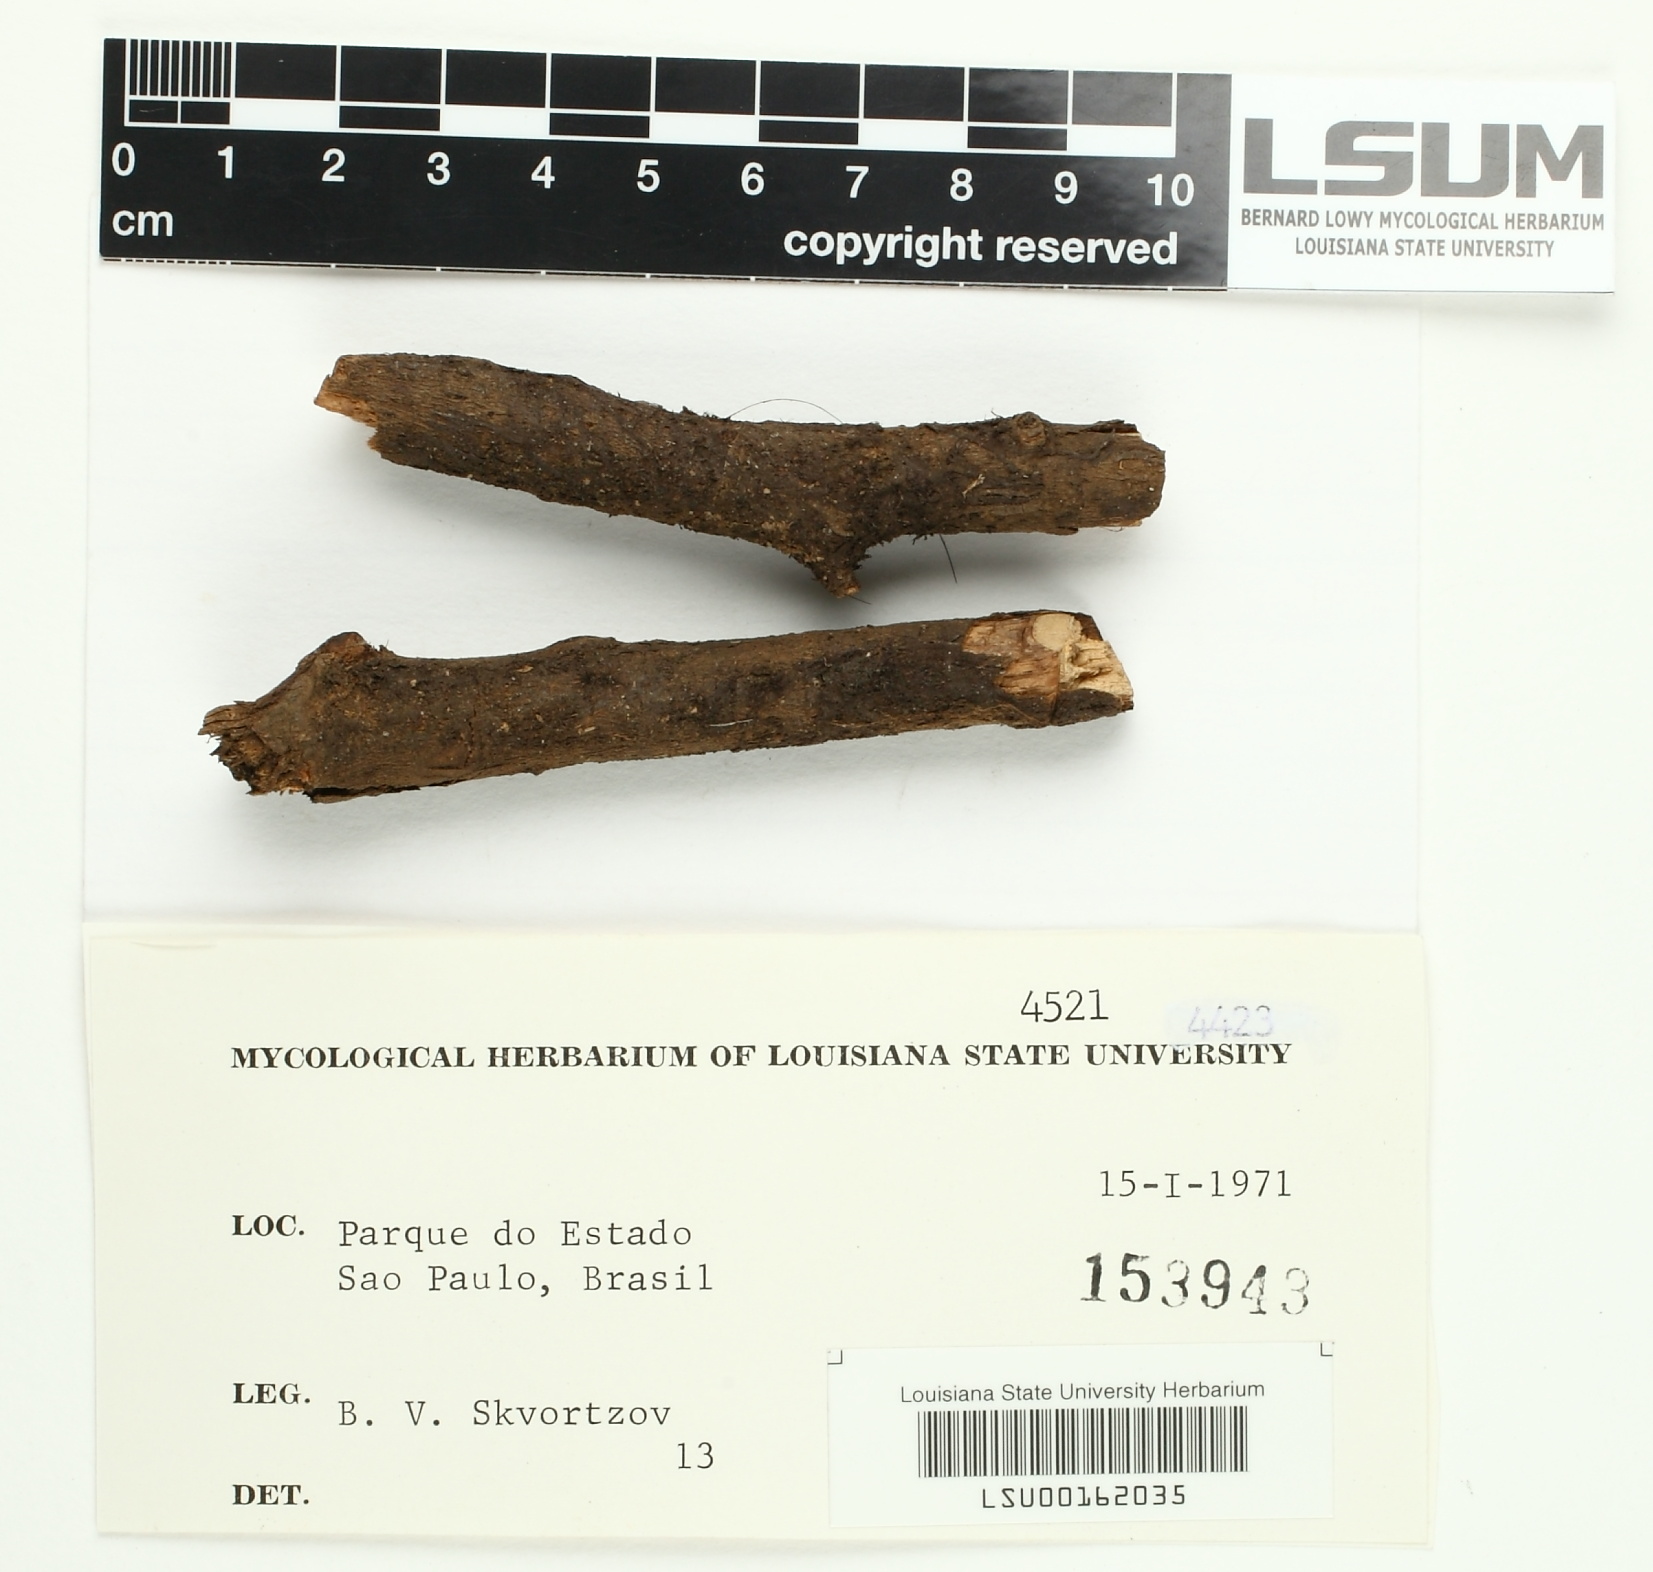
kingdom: Fungi
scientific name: Fungi
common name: Fungi
